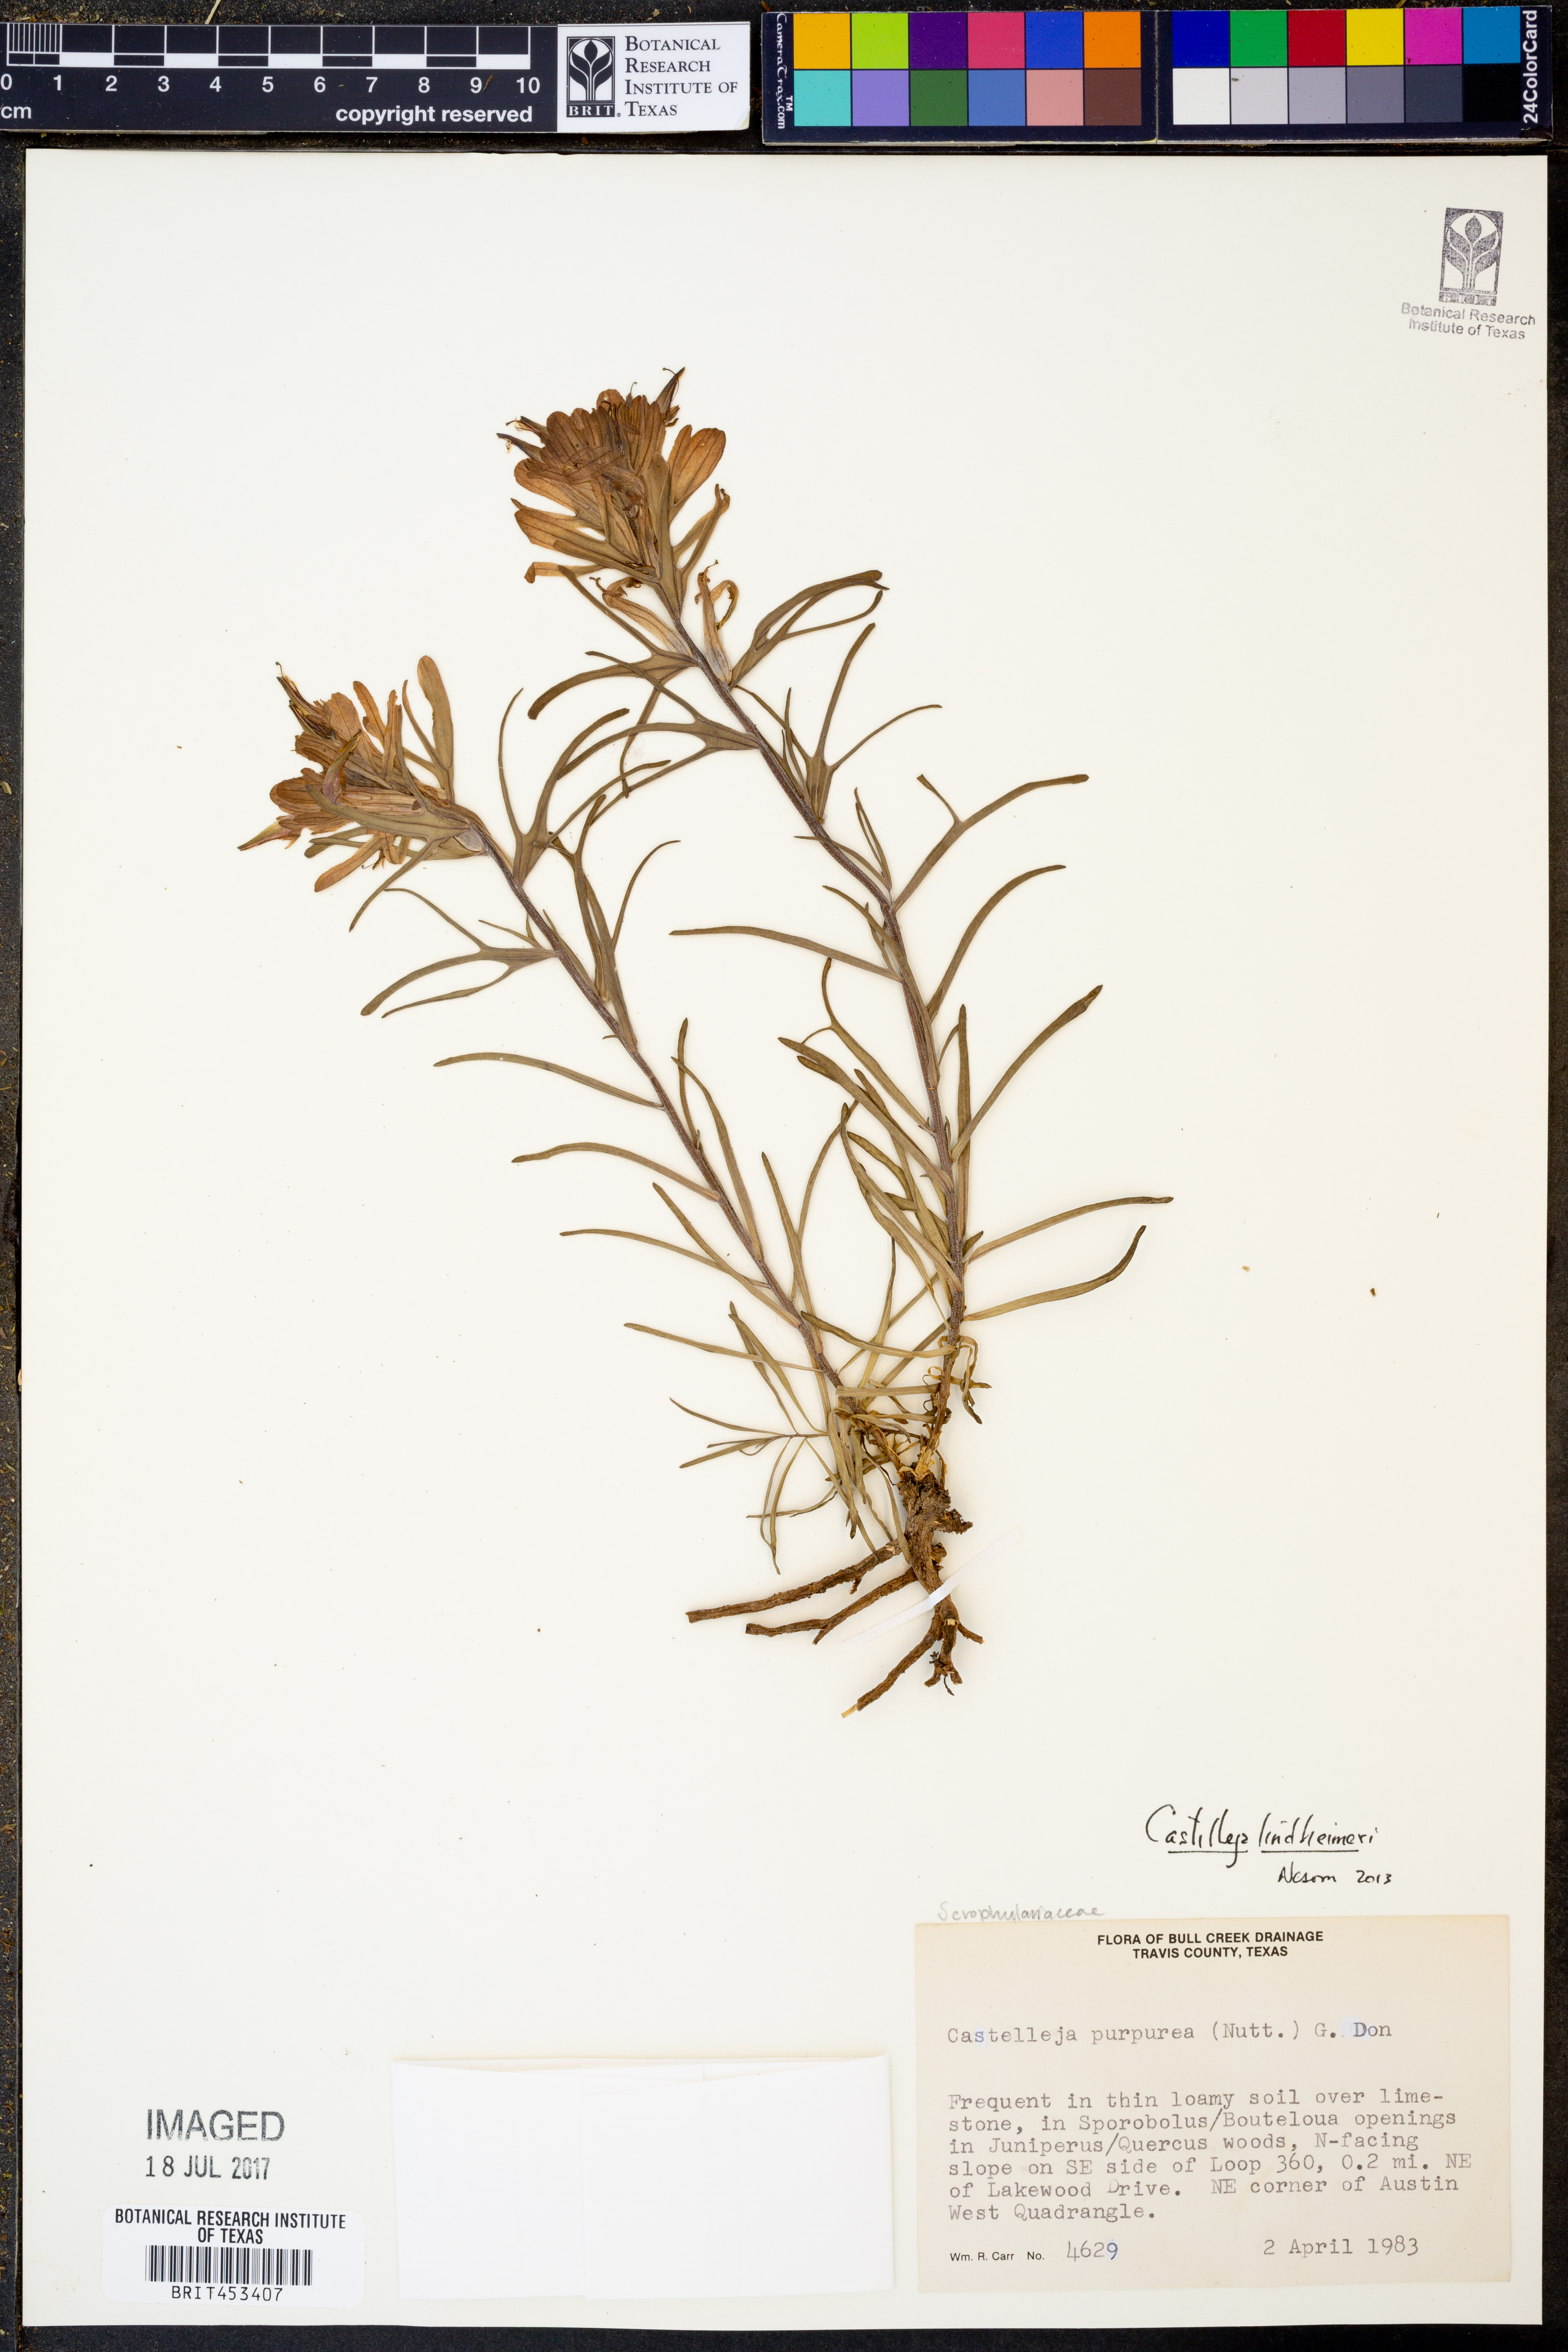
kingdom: Plantae
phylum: Tracheophyta
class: Magnoliopsida
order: Lamiales
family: Orobanchaceae
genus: Castilleja
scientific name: Castilleja lindheimeri
